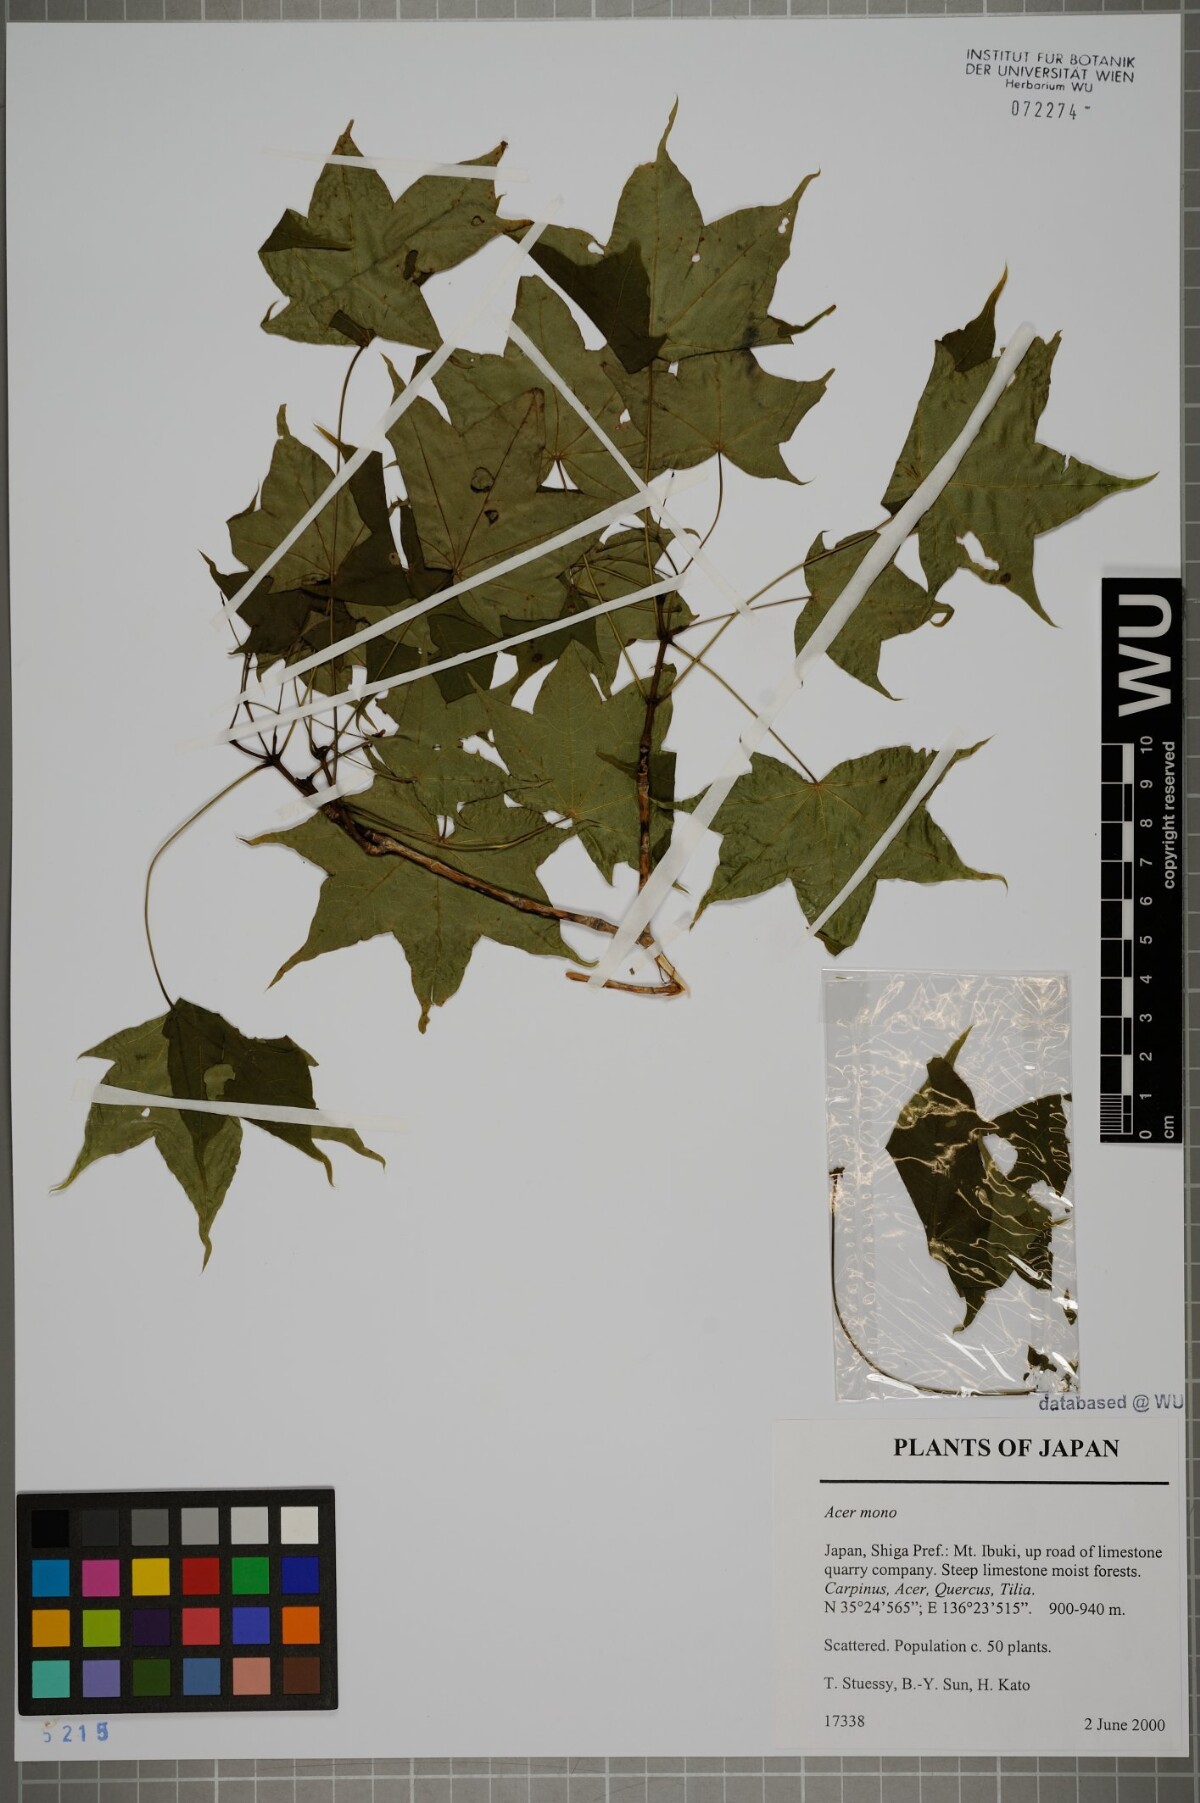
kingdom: Plantae
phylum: Tracheophyta
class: Magnoliopsida
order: Sapindales
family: Sapindaceae
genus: Acer
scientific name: Acer pictum
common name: The painted maple
